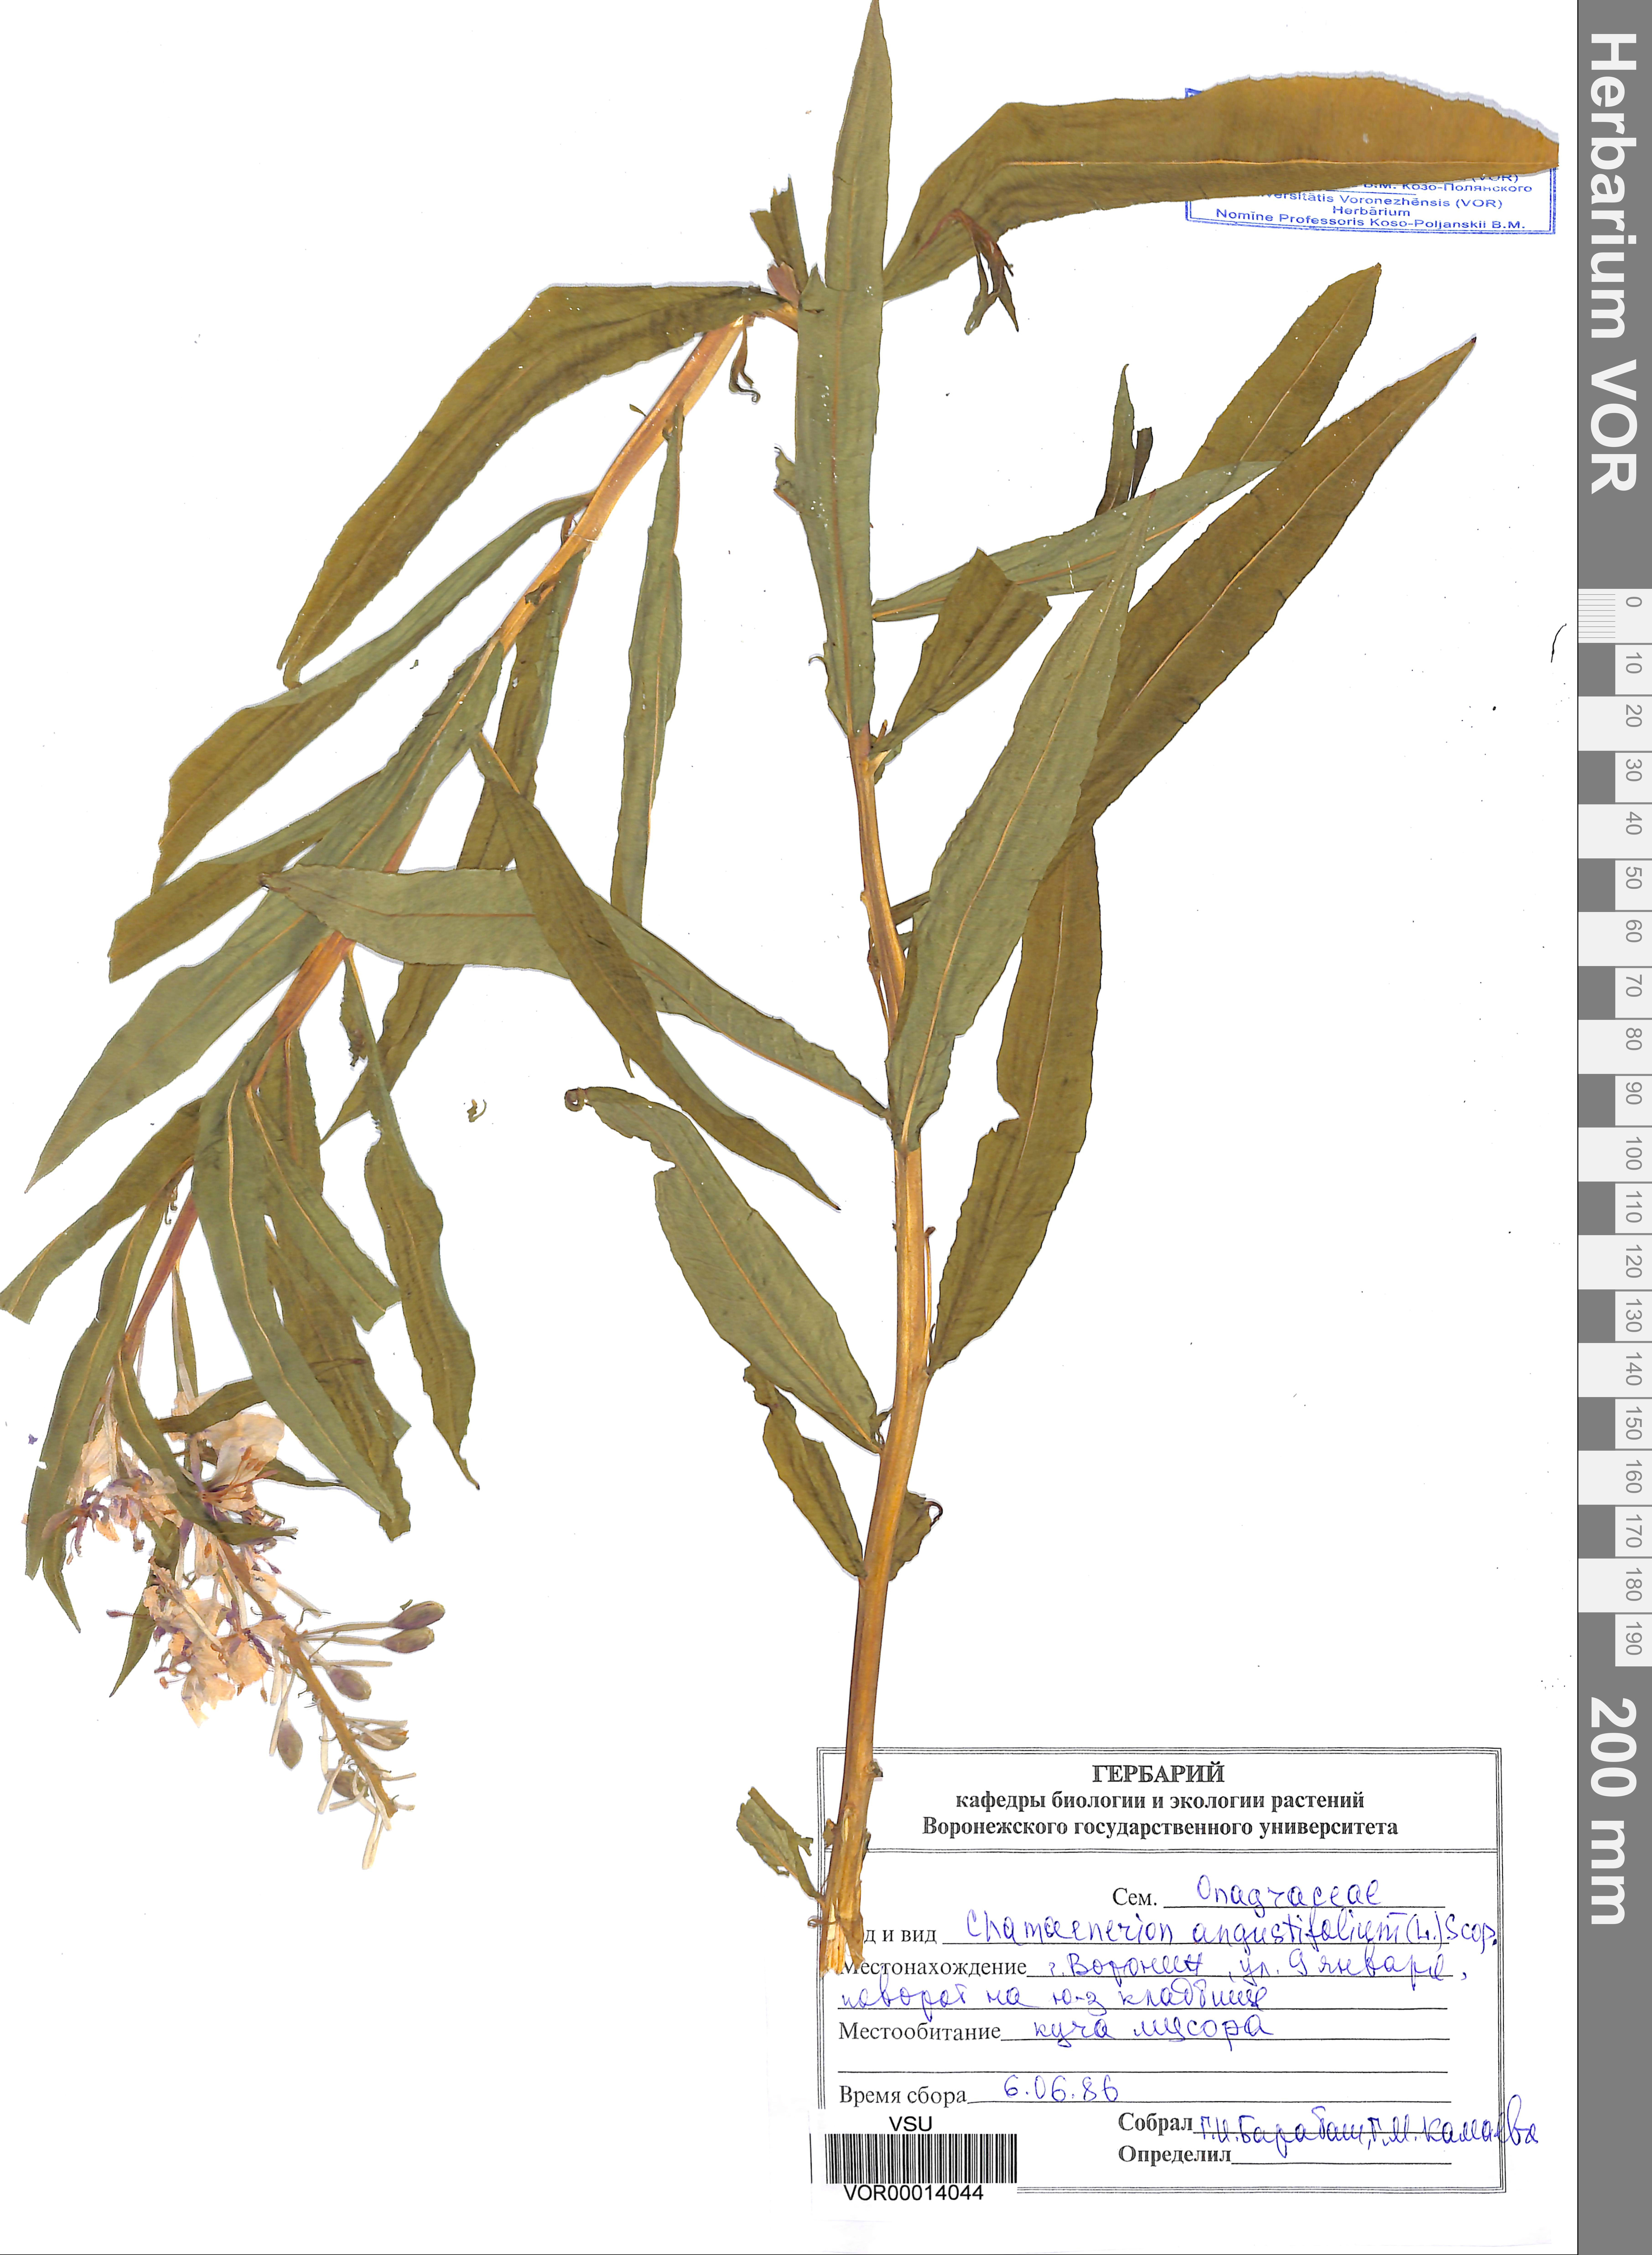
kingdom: Plantae
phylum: Tracheophyta
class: Magnoliopsida
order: Myrtales
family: Onagraceae
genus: Chamaenerion
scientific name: Chamaenerion angustifolium
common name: Fireweed
